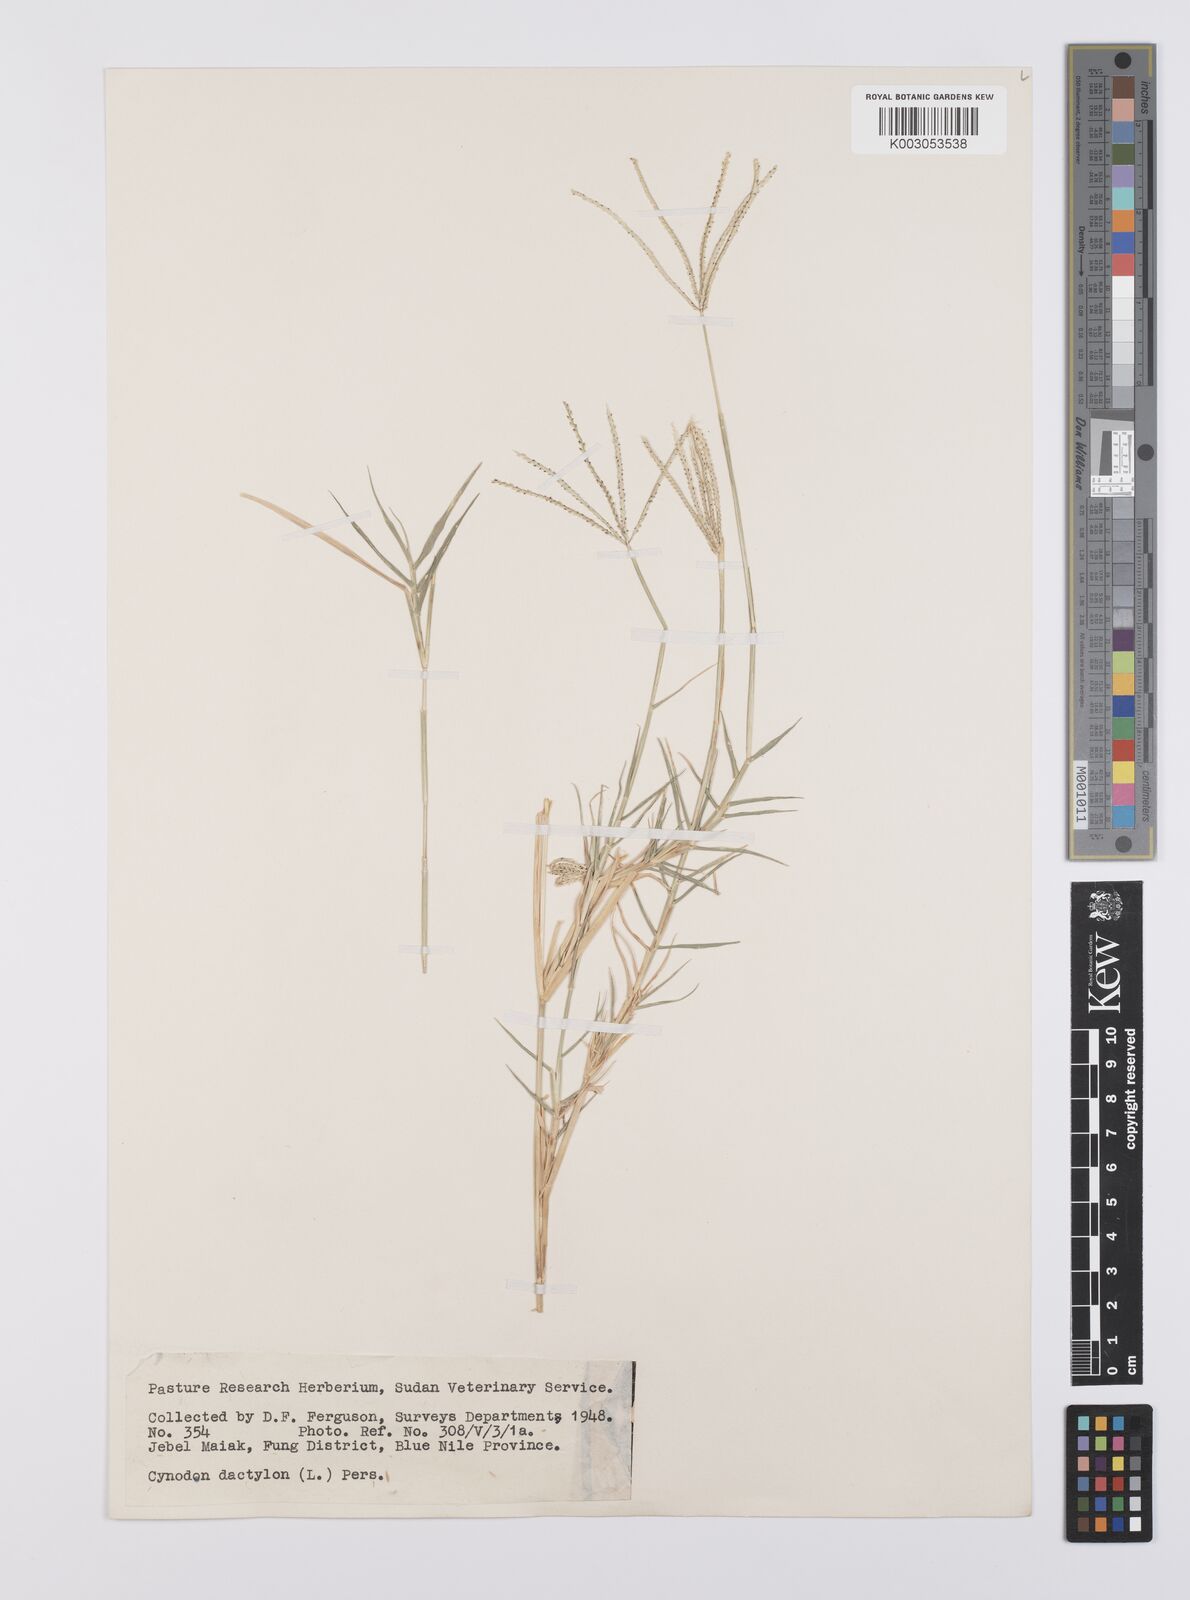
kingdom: Plantae
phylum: Tracheophyta
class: Liliopsida
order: Poales
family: Poaceae
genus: Cynodon
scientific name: Cynodon dactylon
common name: Bermuda grass
